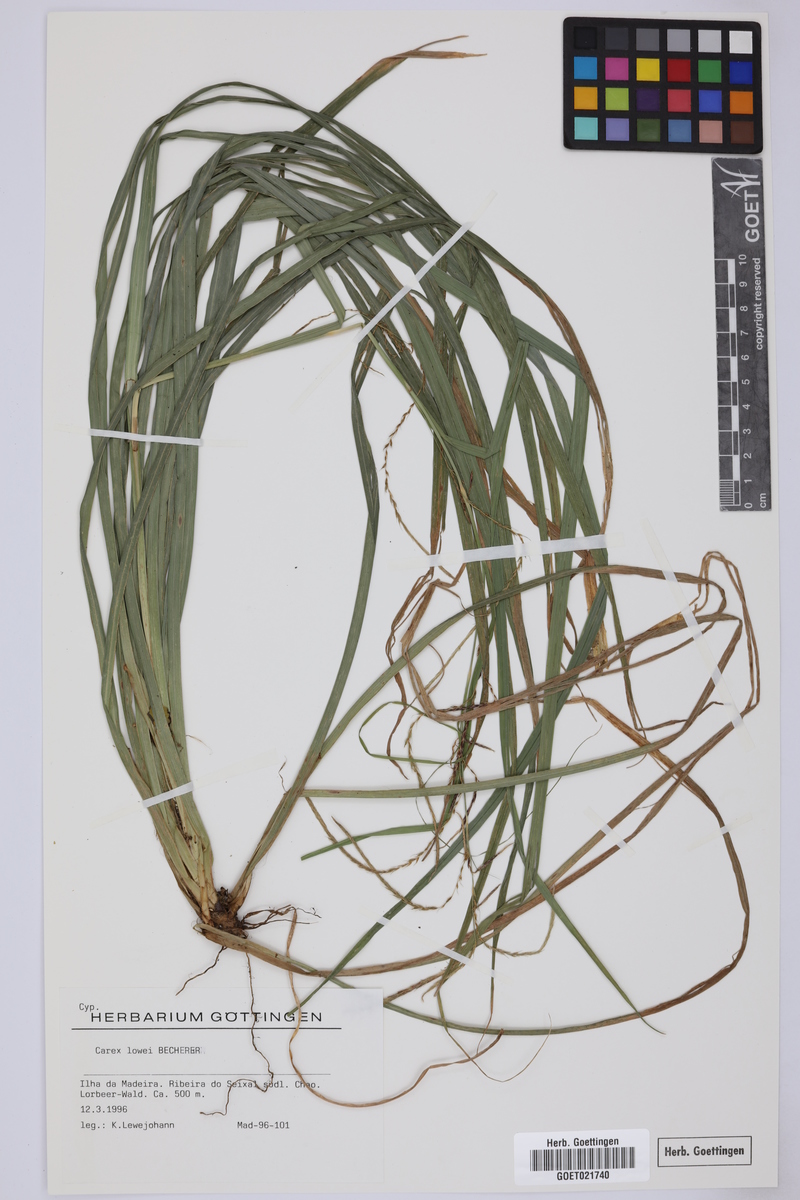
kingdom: Plantae
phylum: Tracheophyta
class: Liliopsida
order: Poales
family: Cyperaceae
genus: Carex
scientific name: Carex lowei
